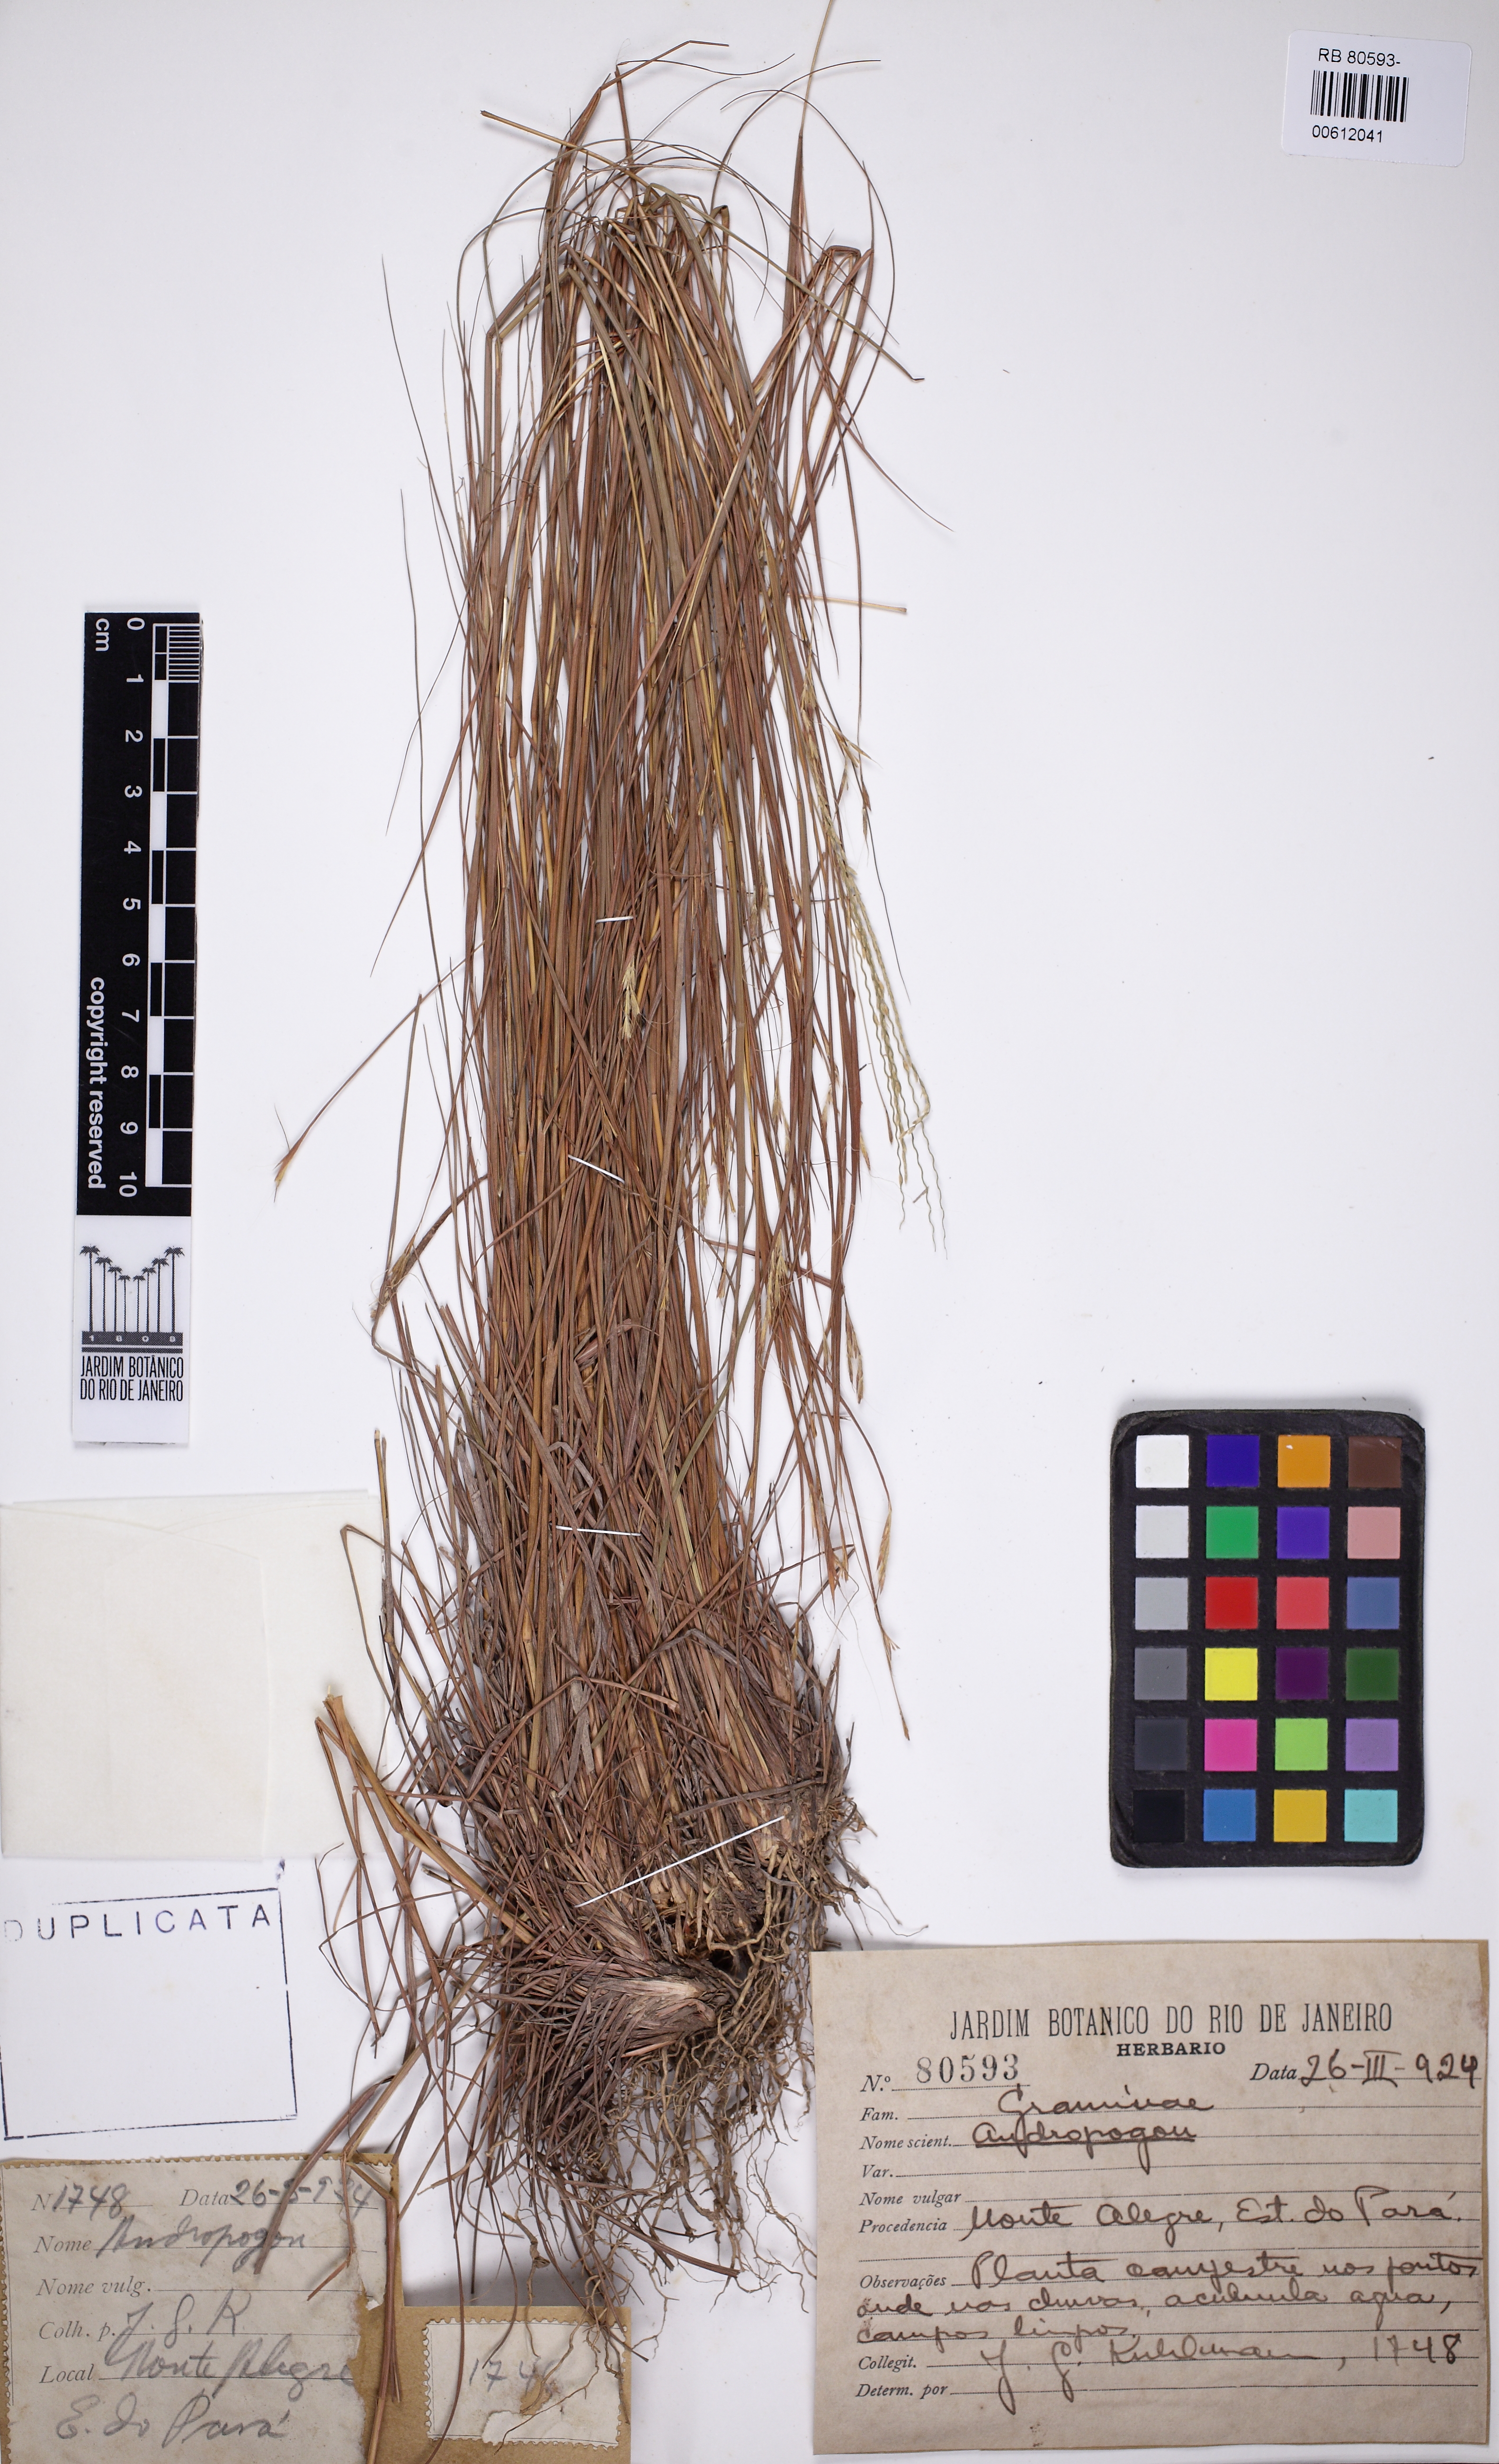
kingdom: Plantae
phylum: Tracheophyta
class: Liliopsida
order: Poales
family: Poaceae
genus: Andropogon
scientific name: Andropogon
